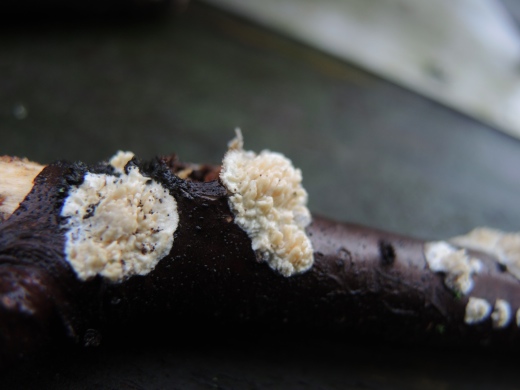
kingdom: Fungi
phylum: Basidiomycota
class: Agaricomycetes
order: Hymenochaetales
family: Schizoporaceae
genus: Xylodon
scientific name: Xylodon radula
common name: grovtandet kalkskind
